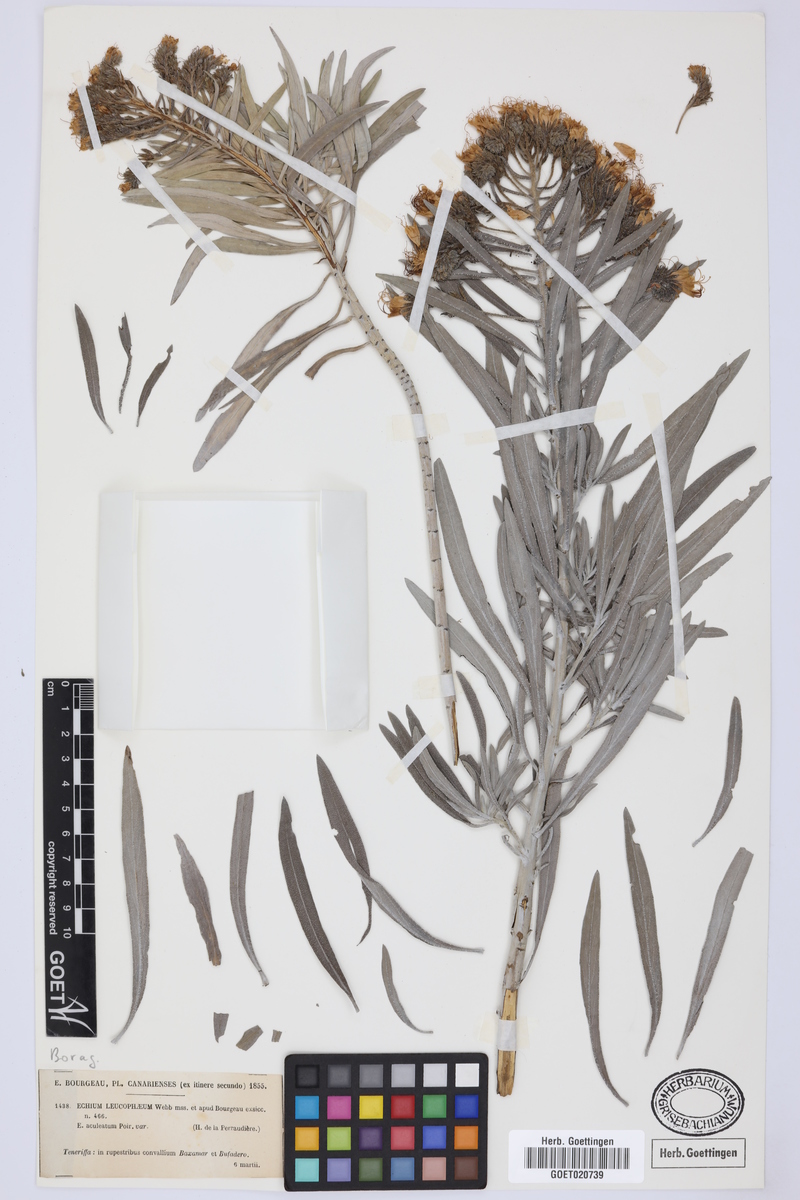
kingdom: Plantae
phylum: Tracheophyta
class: Magnoliopsida
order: Boraginales
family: Boraginaceae
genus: Echium
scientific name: Echium leucophaeum
